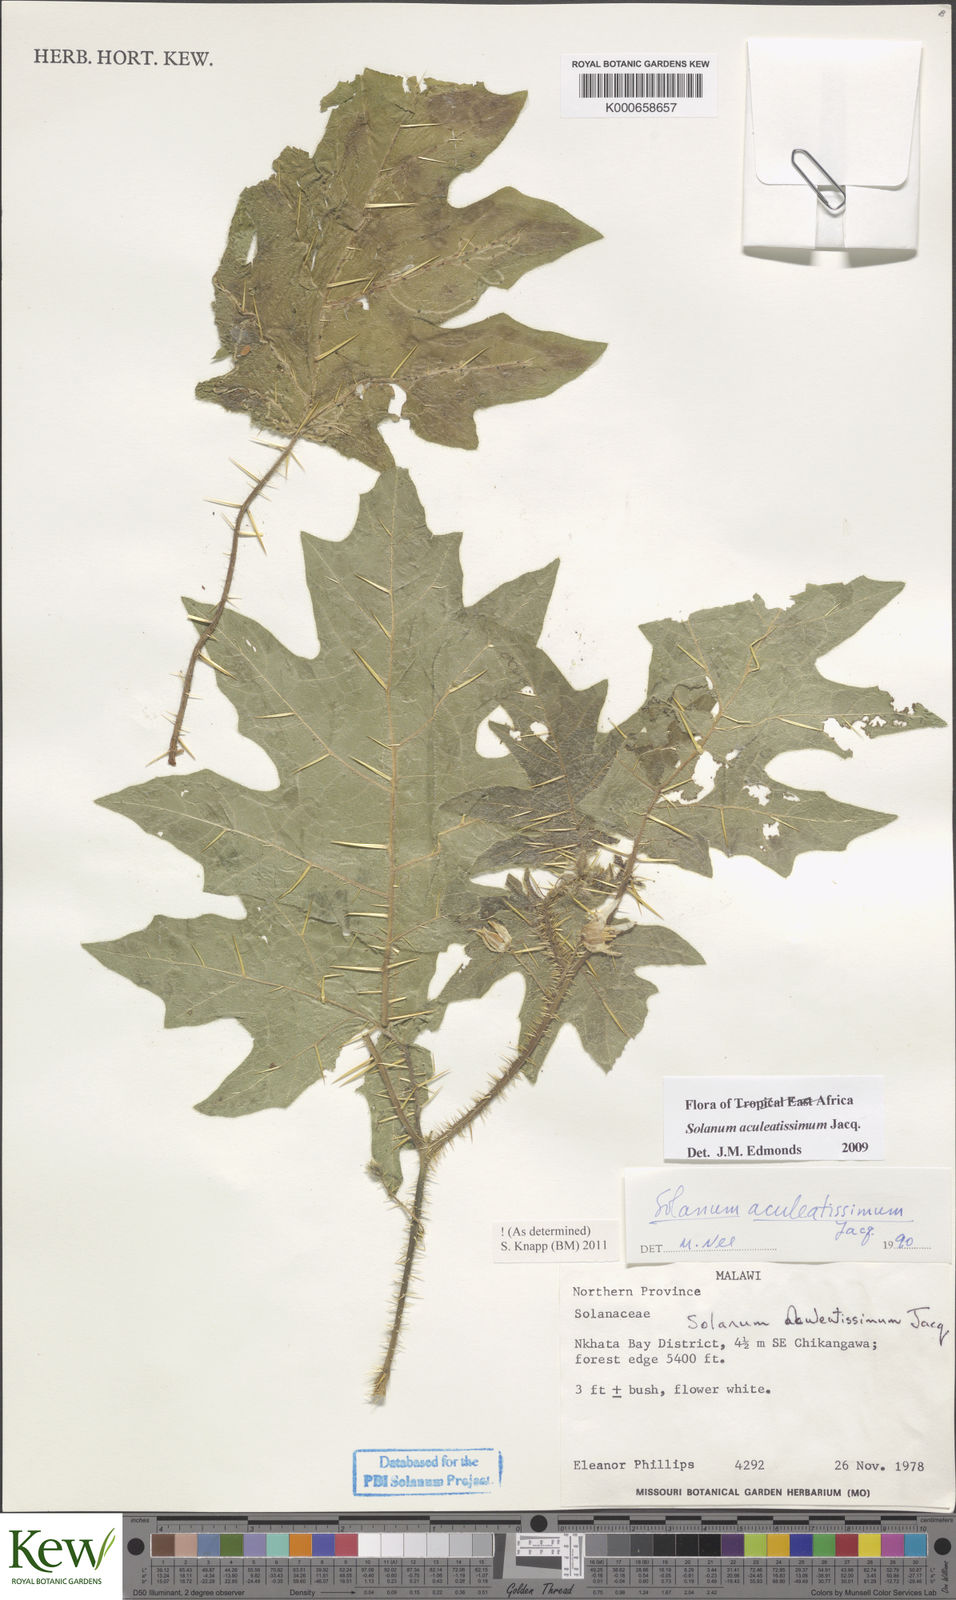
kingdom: Plantae
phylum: Tracheophyta
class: Magnoliopsida
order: Solanales
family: Solanaceae
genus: Solanum
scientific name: Solanum aculeatissimum
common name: Dutch eggplant
